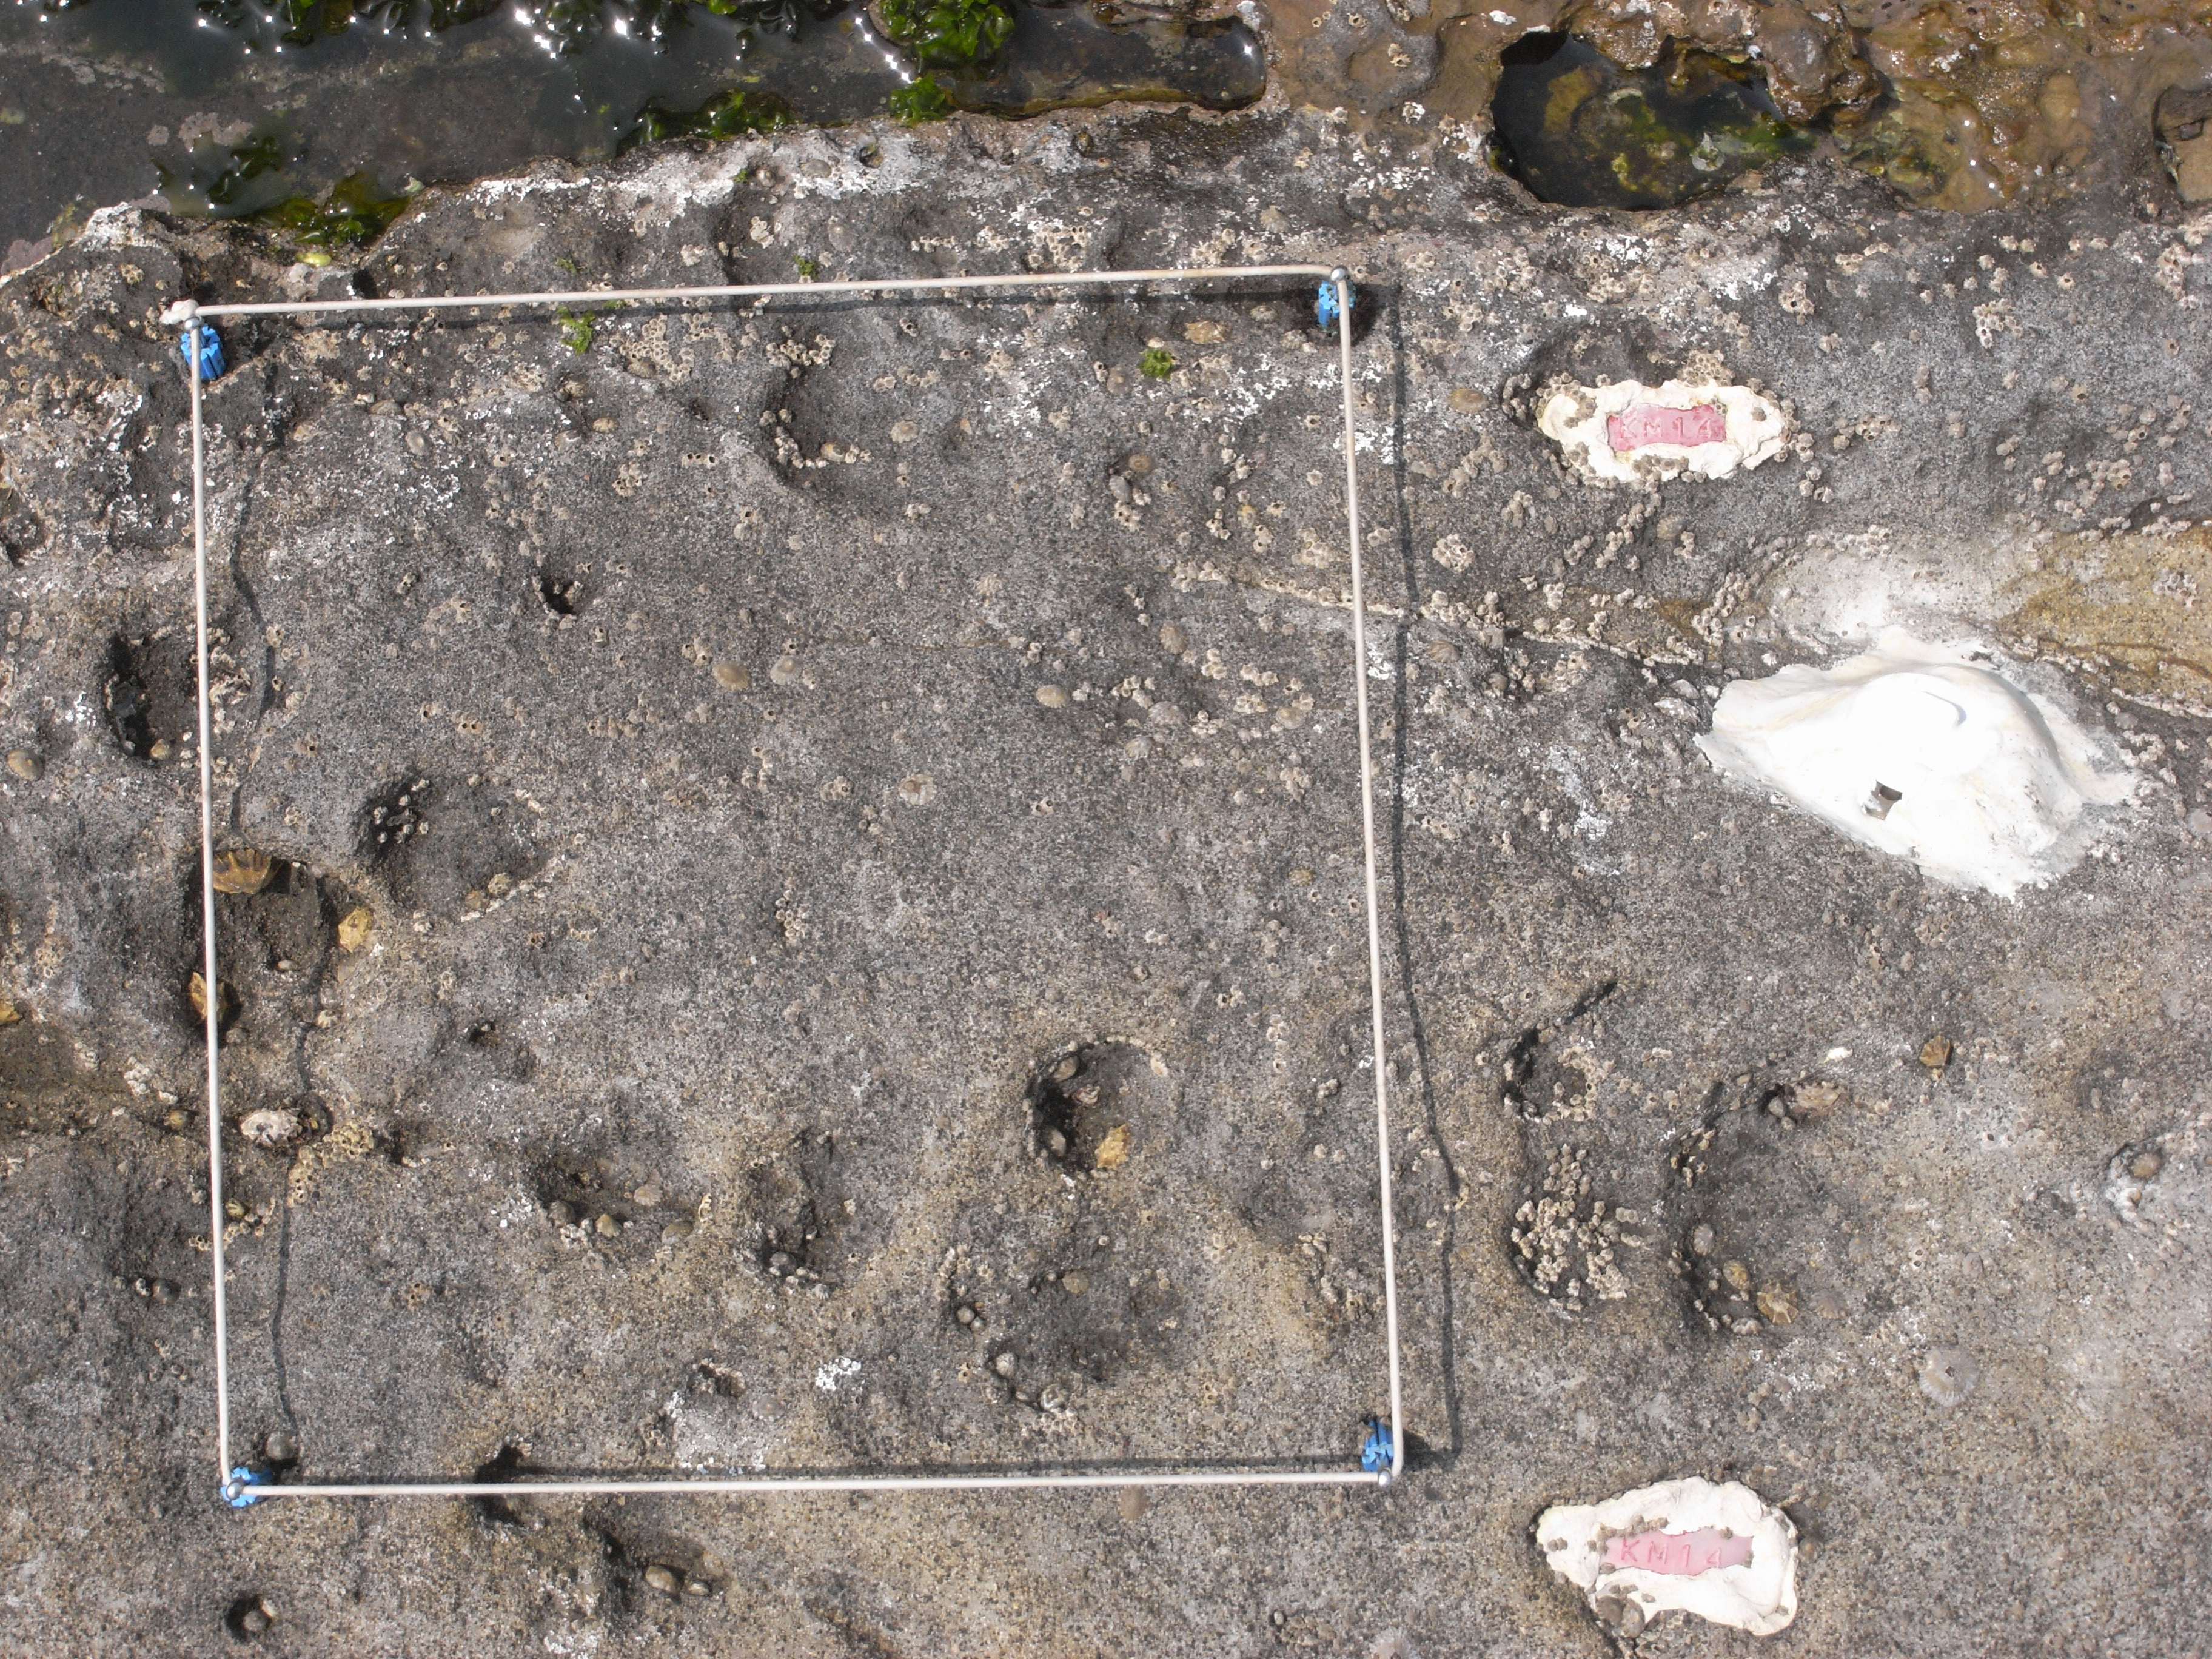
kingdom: Animalia
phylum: Arthropoda
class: Maxillopoda
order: Sessilia
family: Chthamalidae
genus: Chthamalus
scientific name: Chthamalus challengeri
